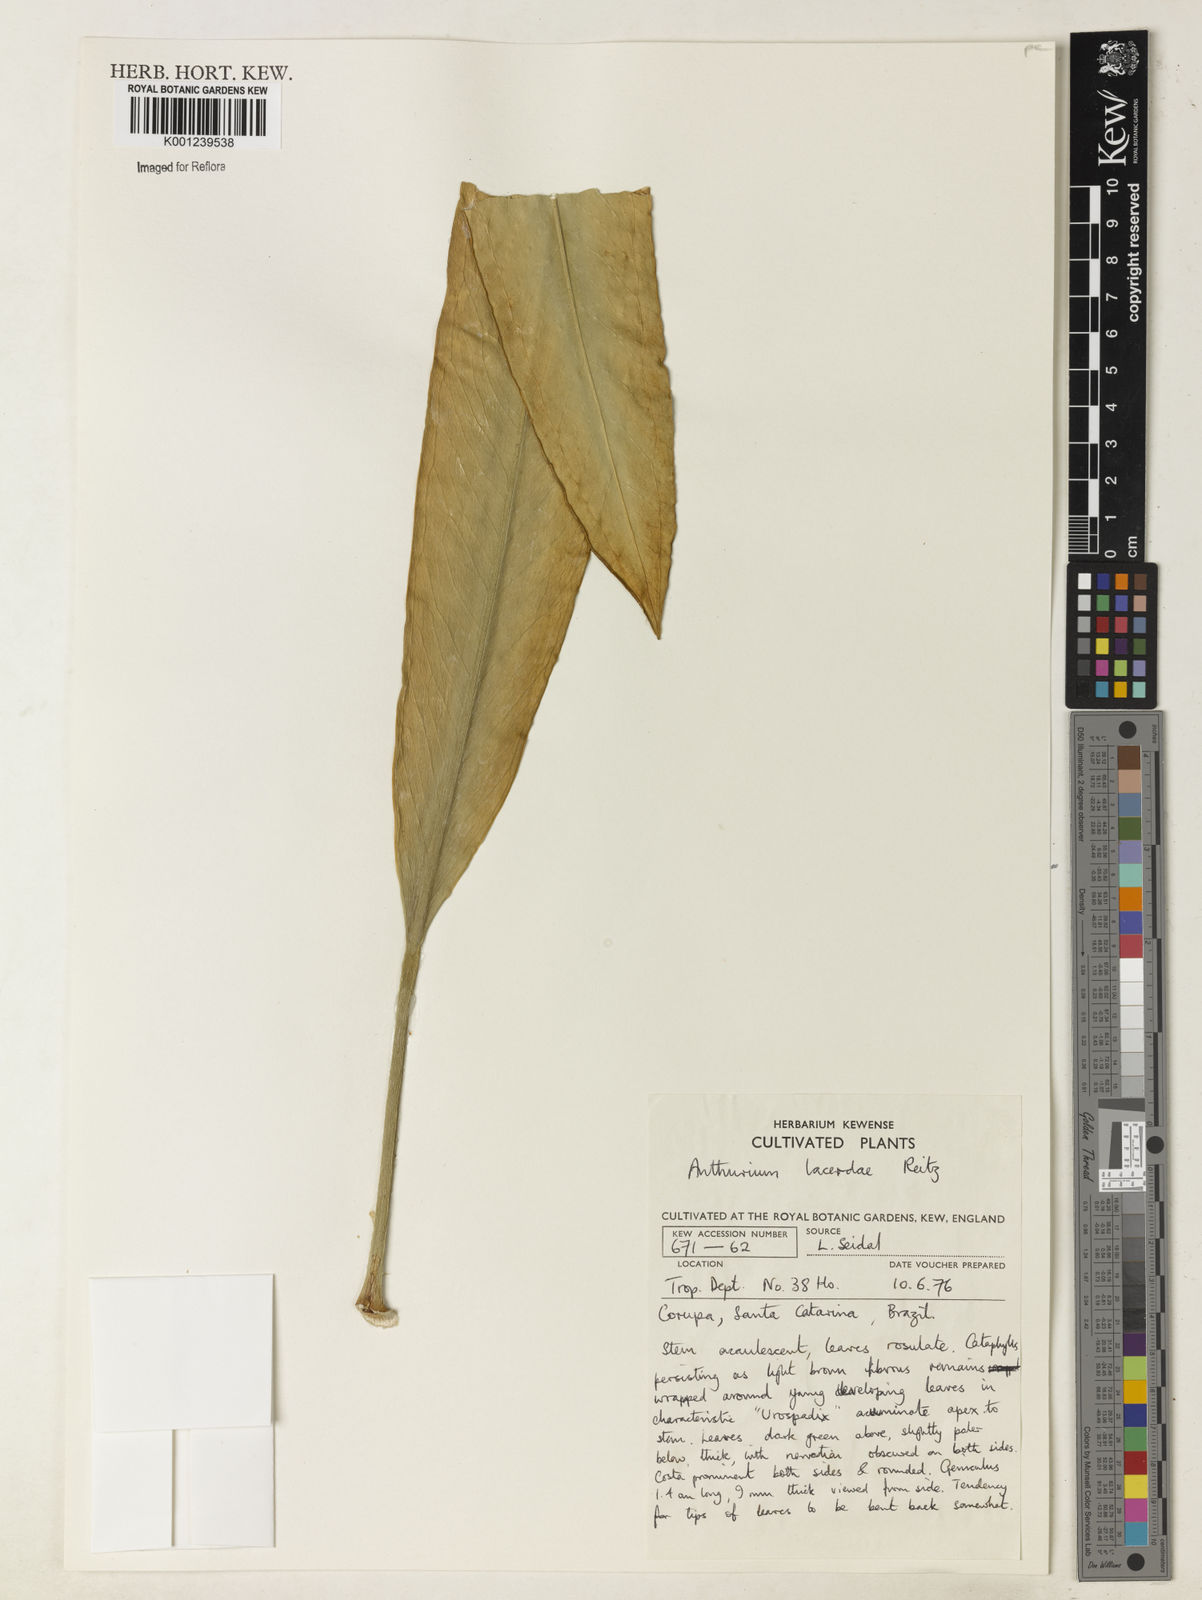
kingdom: Plantae
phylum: Tracheophyta
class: Liliopsida
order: Alismatales
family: Araceae
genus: Anthurium
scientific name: Anthurium lacerdae
